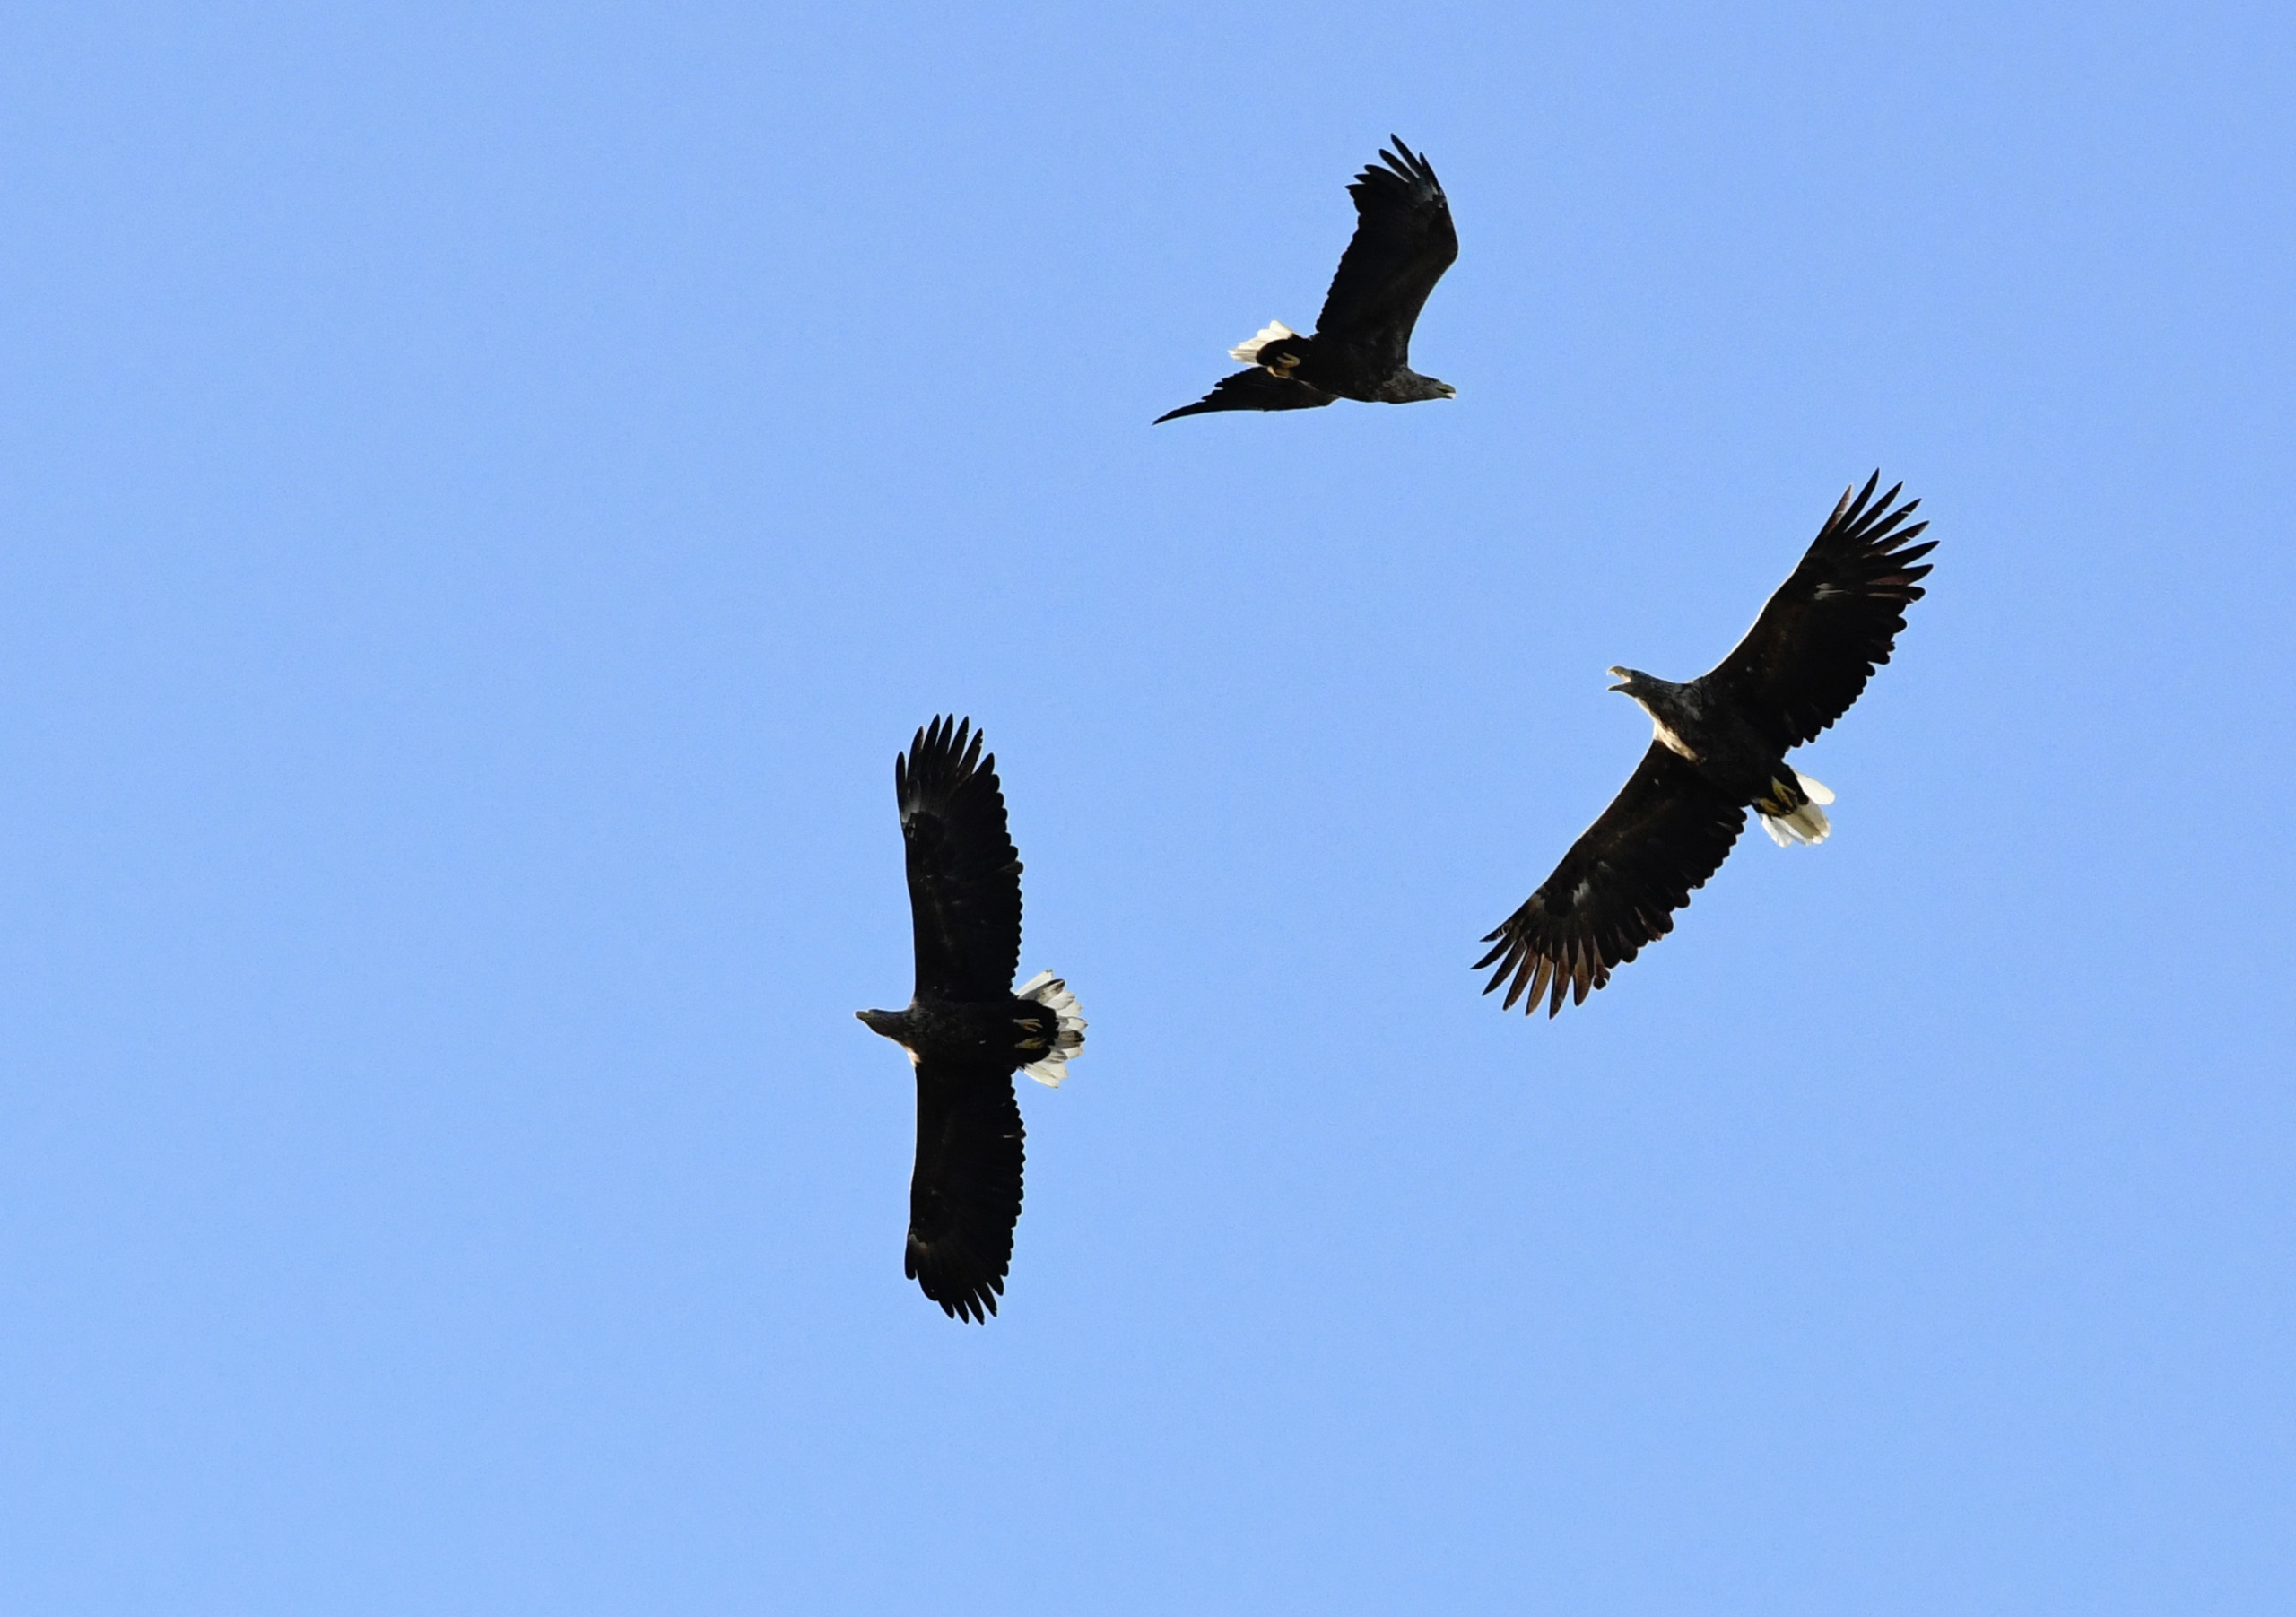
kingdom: Animalia
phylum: Chordata
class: Aves
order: Accipitriformes
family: Accipitridae
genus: Haliaeetus
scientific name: Haliaeetus albicilla
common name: Havørn
